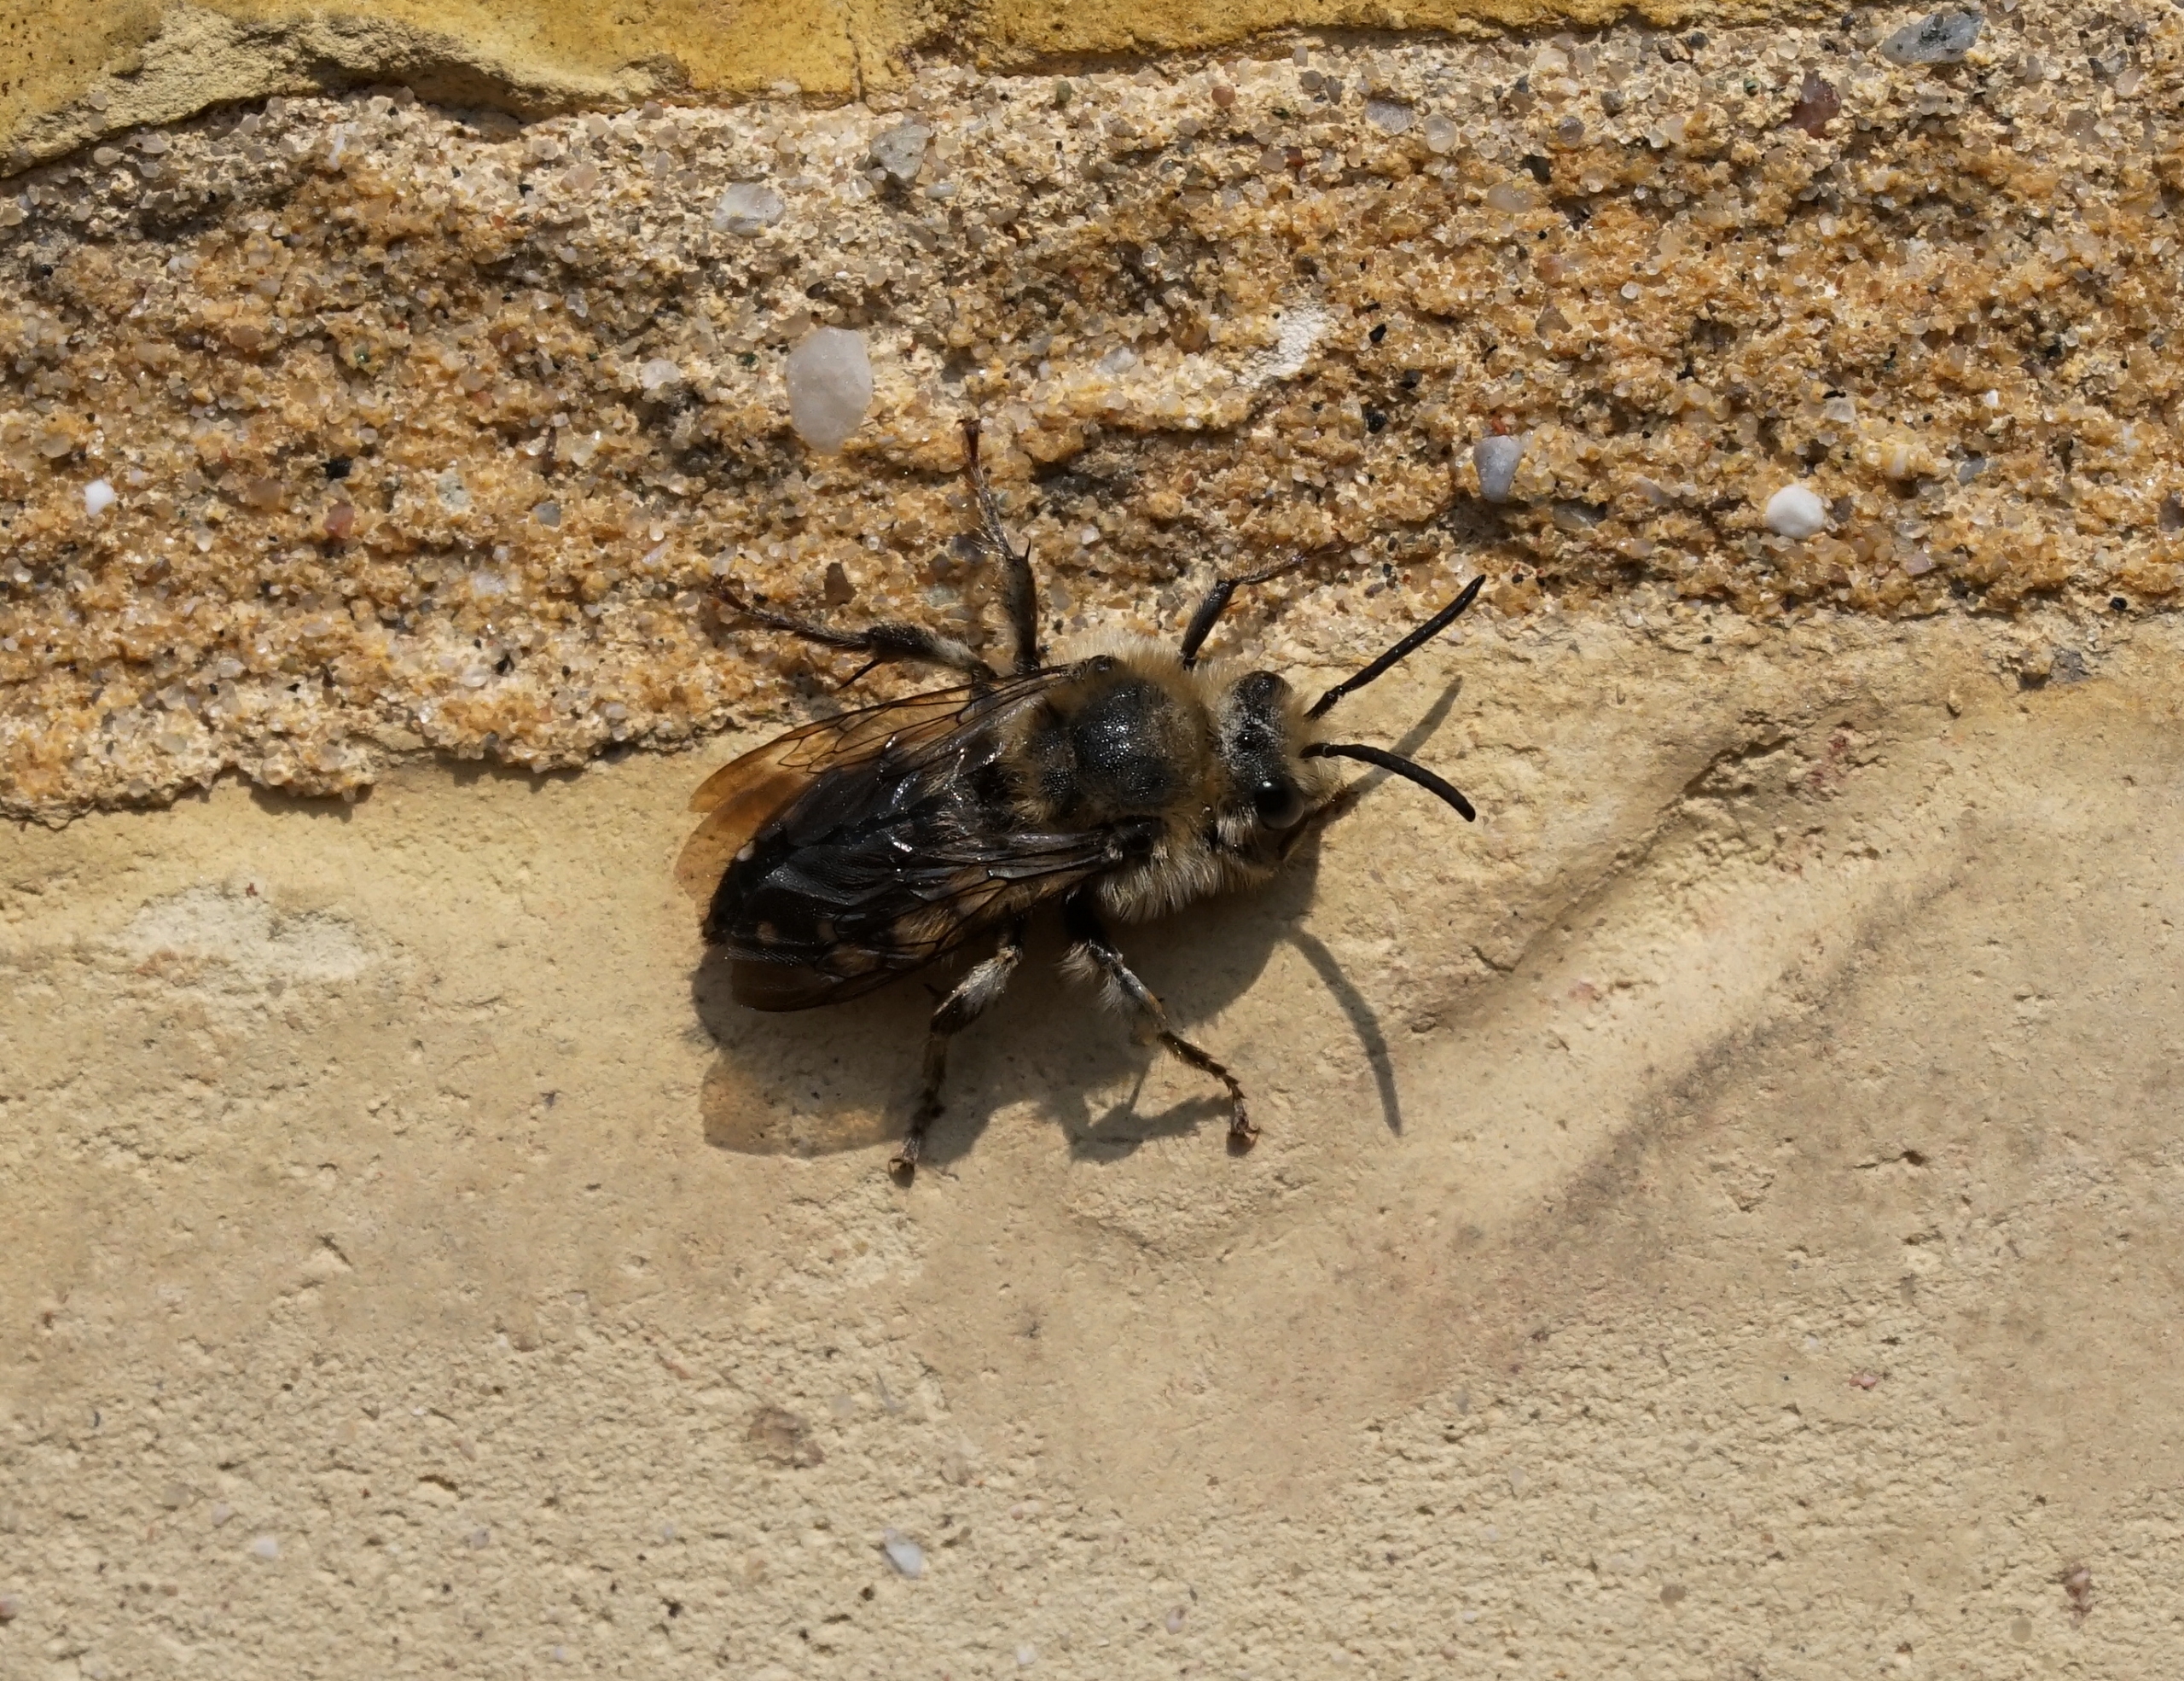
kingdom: Animalia
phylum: Arthropoda
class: Insecta
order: Hymenoptera
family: Apidae
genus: Melecta
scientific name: Melecta albifrons
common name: Plettet sørgebi
